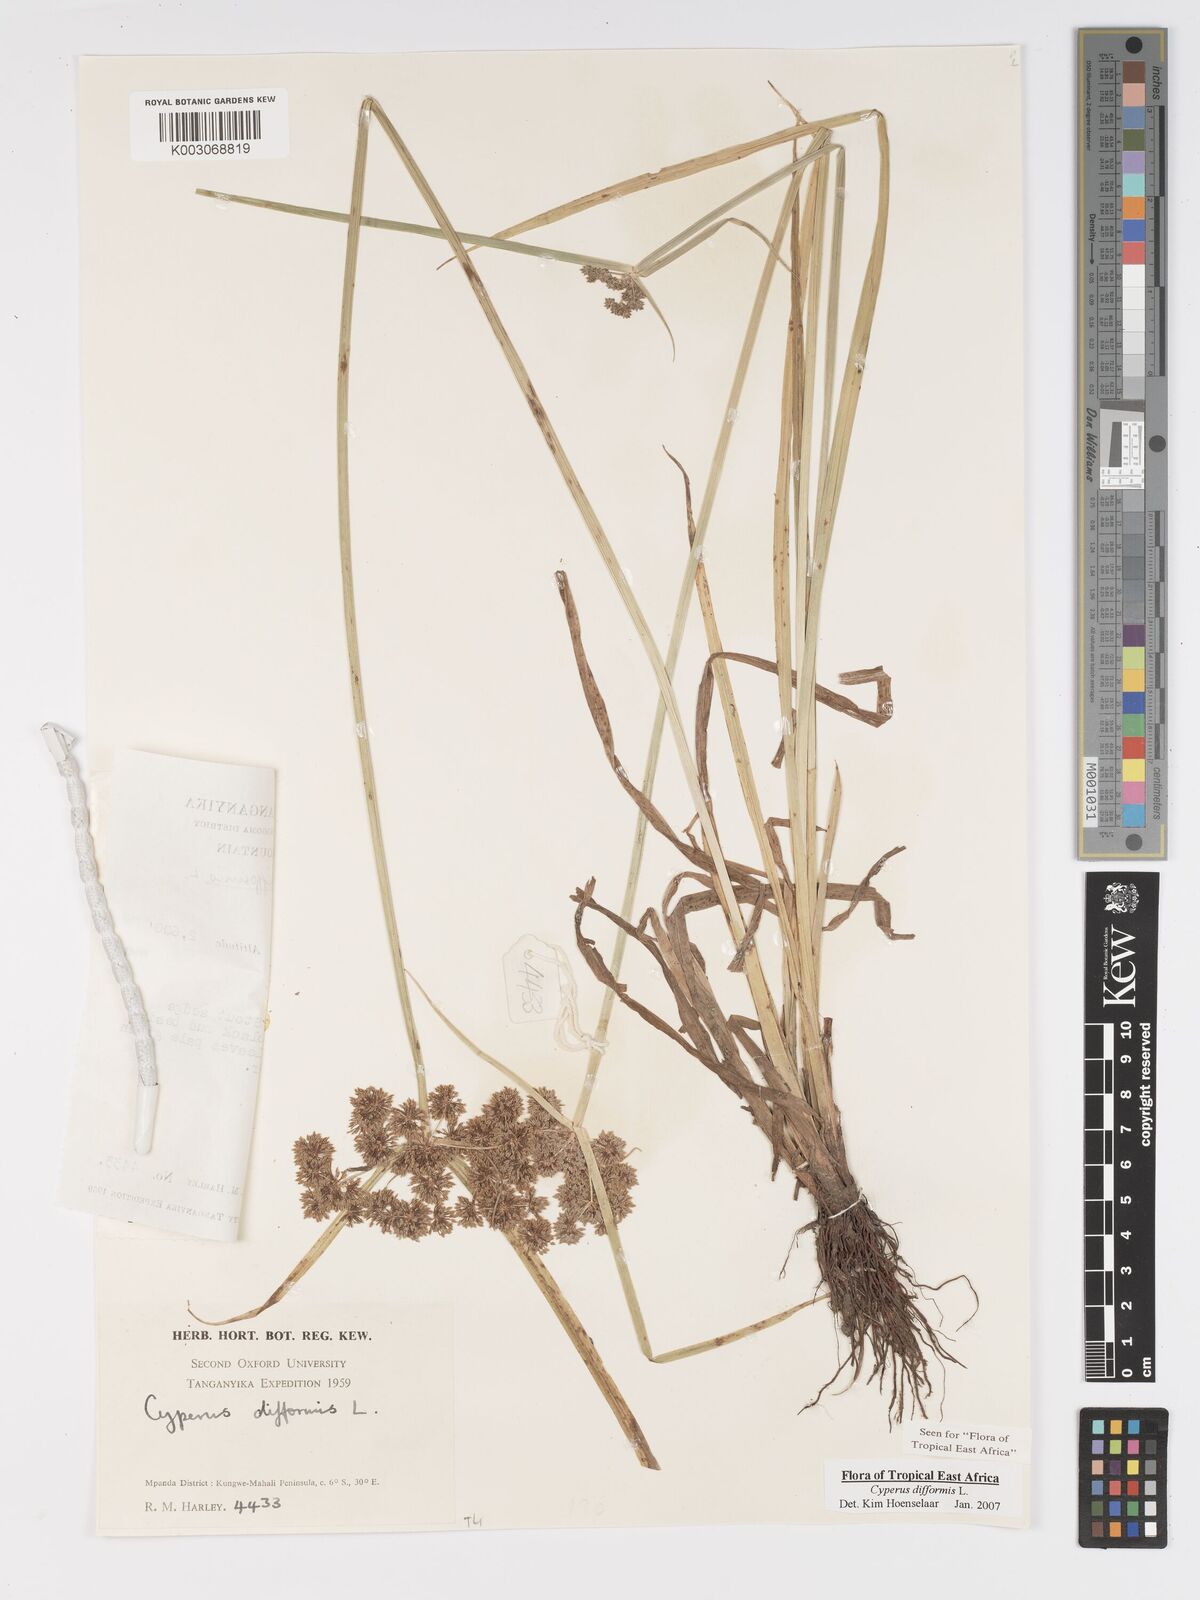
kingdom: Plantae
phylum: Tracheophyta
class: Liliopsida
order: Poales
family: Cyperaceae
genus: Cyperus
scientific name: Cyperus difformis
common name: Variable flatsedge
